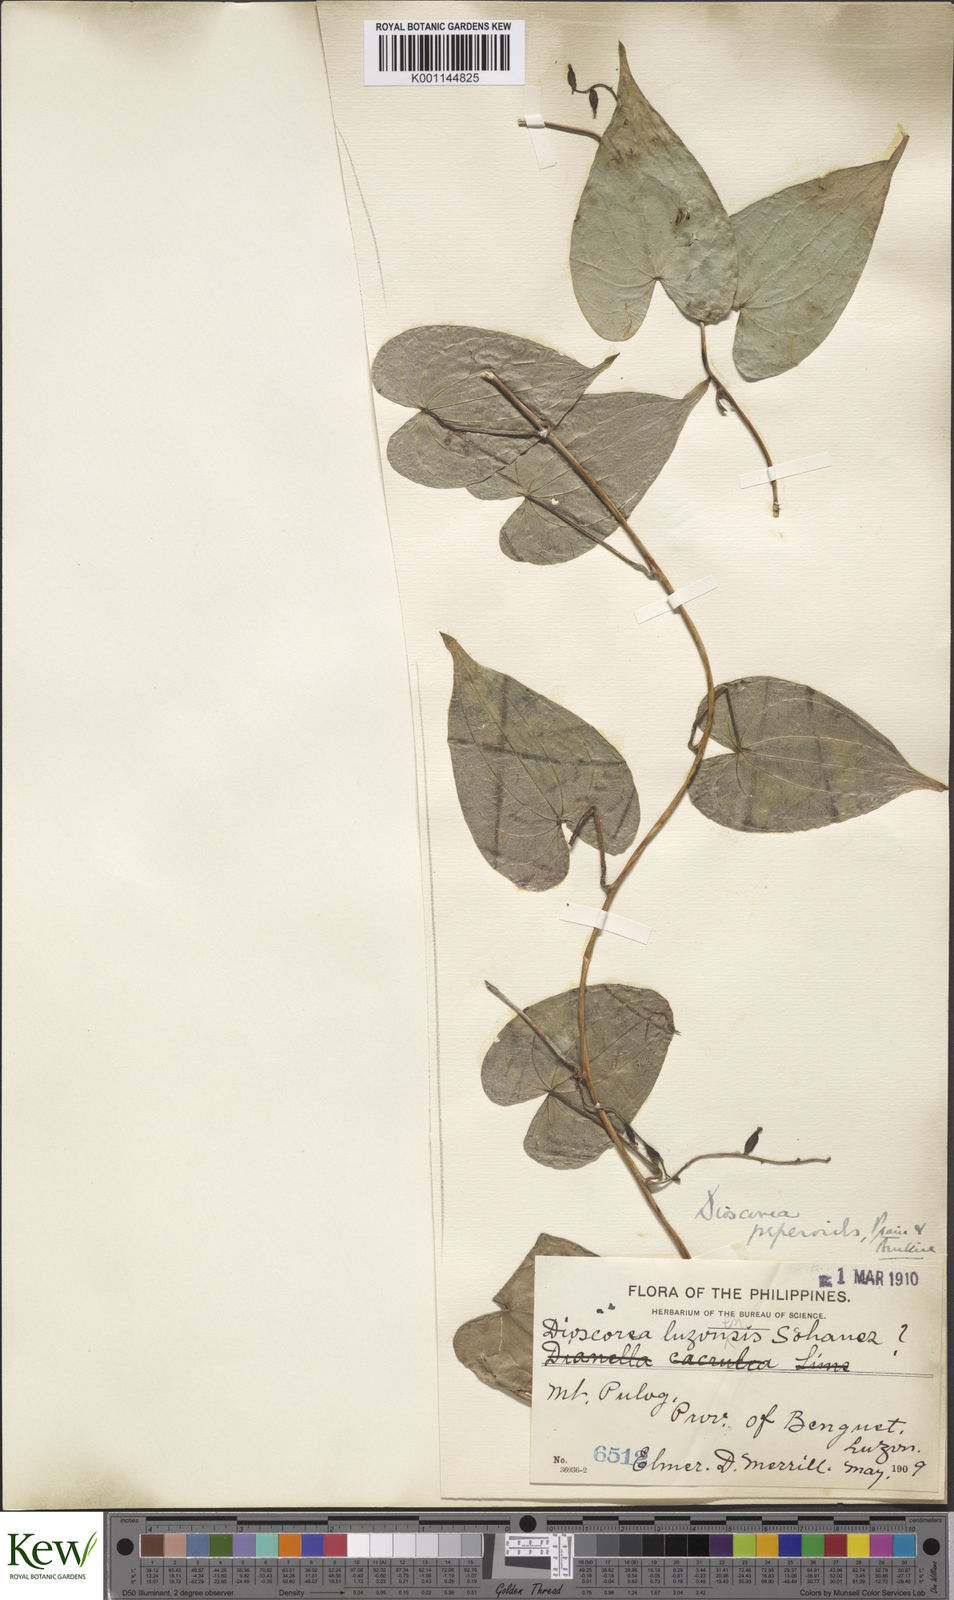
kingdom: Plantae
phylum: Tracheophyta
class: Liliopsida
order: Dioscoreales
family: Dioscoreaceae
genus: Dioscorea
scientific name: Dioscorea peperoides
